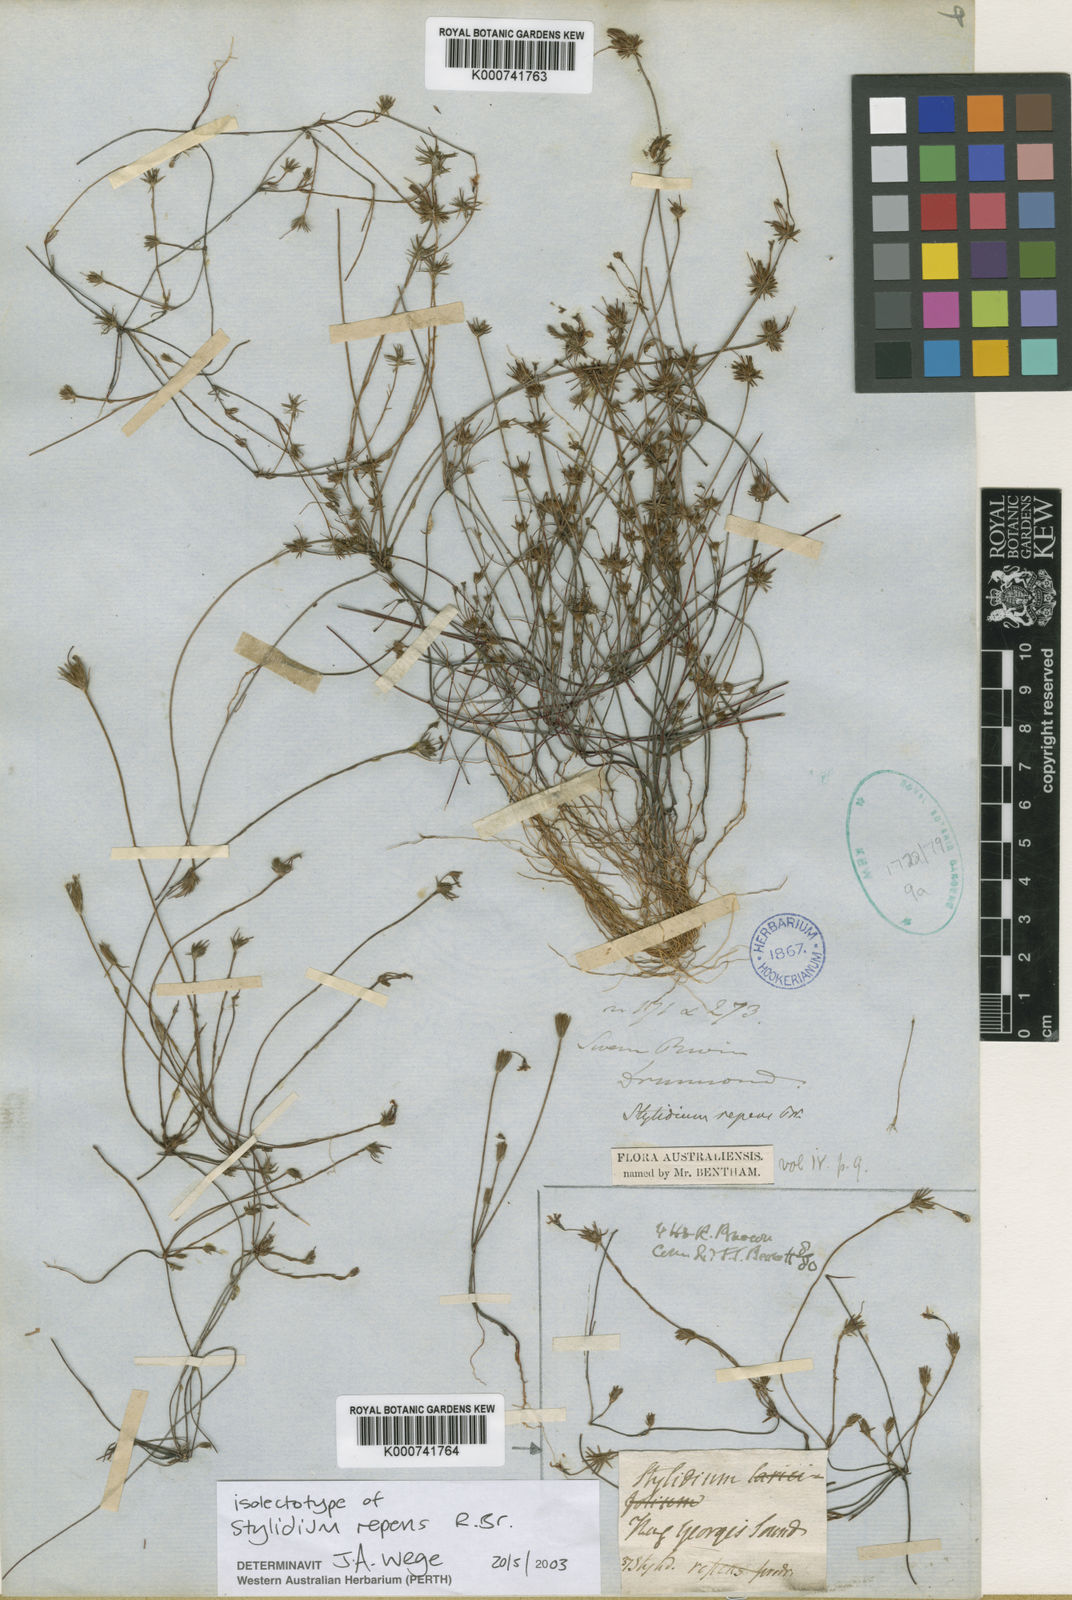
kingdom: Plantae
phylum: Tracheophyta
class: Magnoliopsida
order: Asterales
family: Stylidiaceae
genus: Stylidium
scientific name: Stylidium repens
